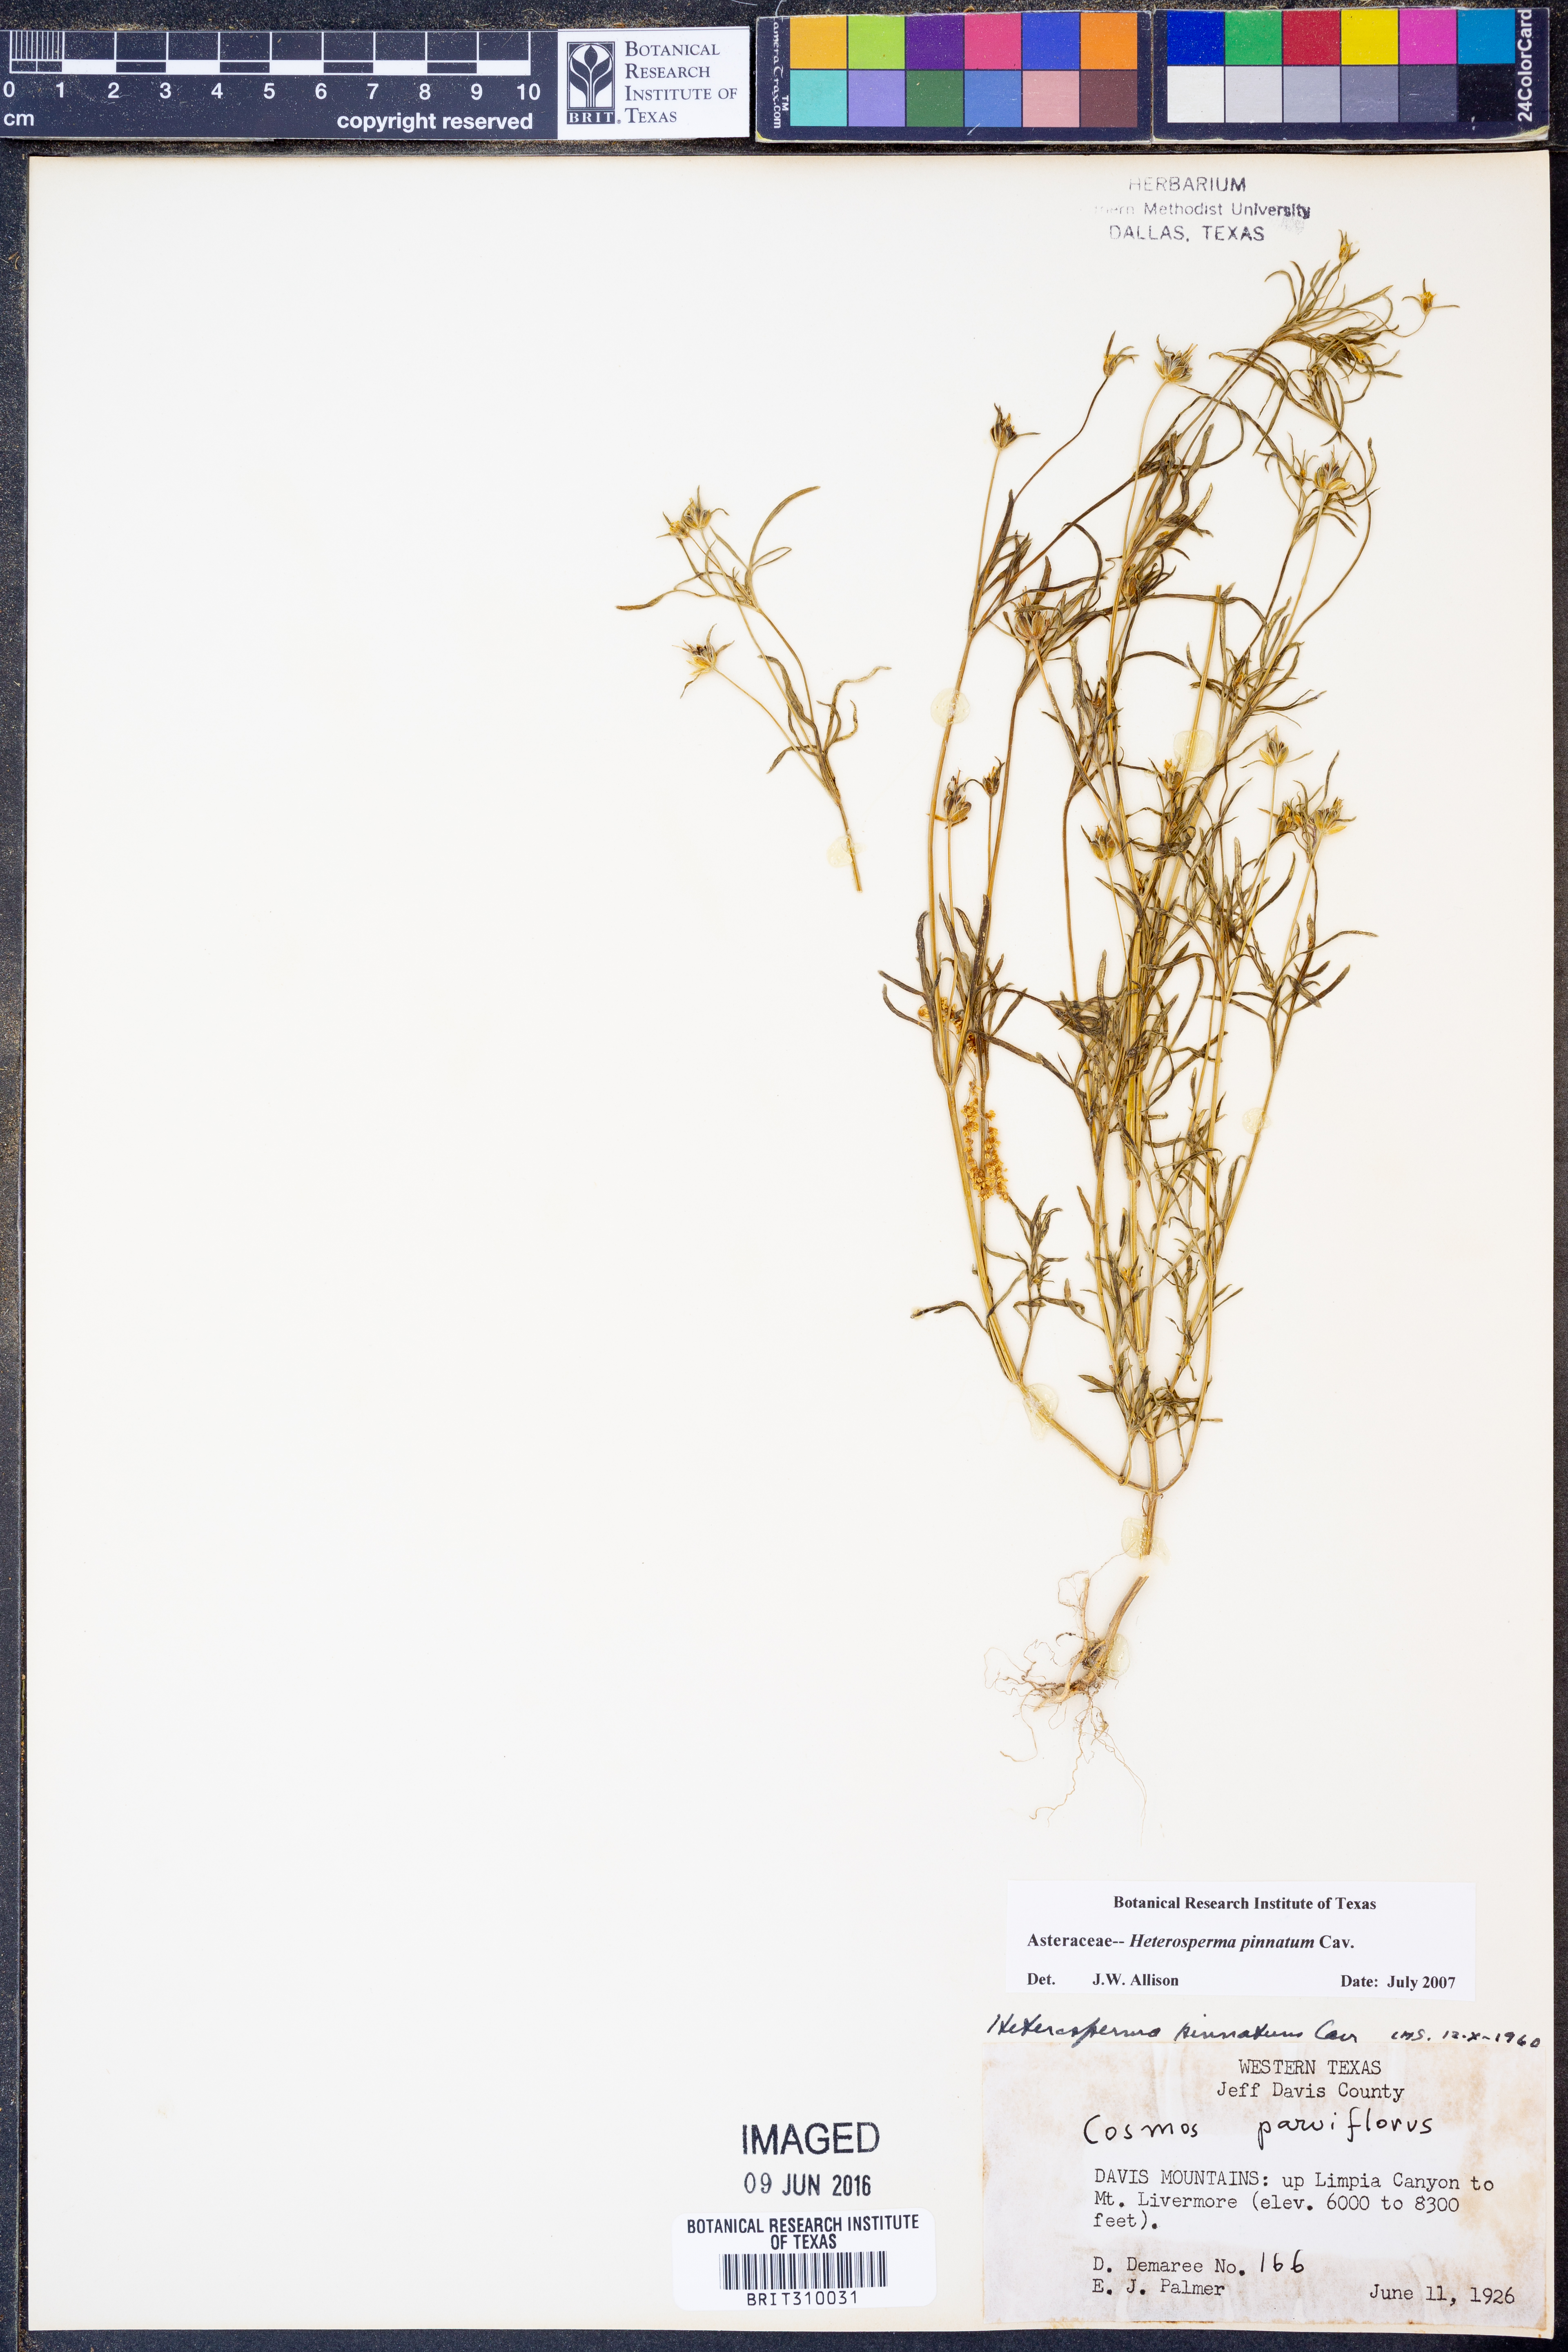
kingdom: Plantae
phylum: Tracheophyta
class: Magnoliopsida
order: Asterales
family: Asteraceae
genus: Heterosperma
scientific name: Heterosperma pinnatum
